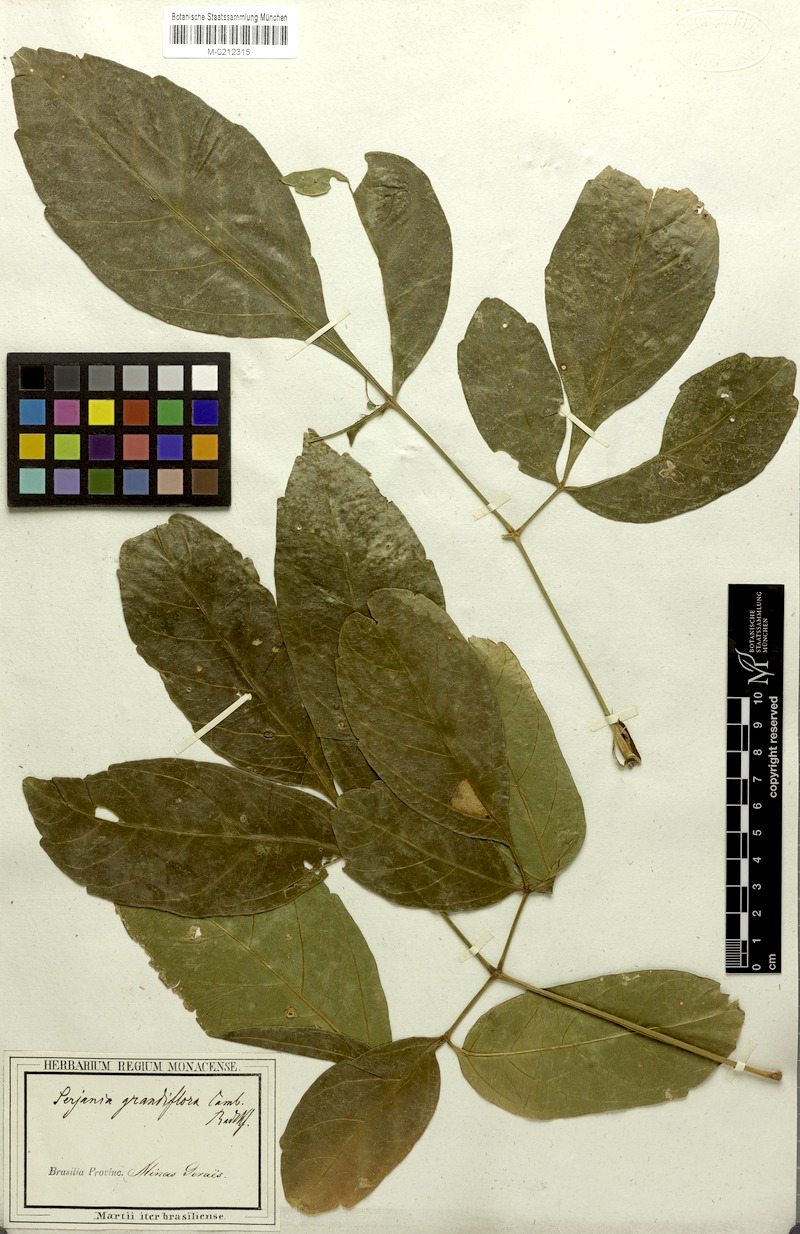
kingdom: Plantae
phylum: Tracheophyta
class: Magnoliopsida
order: Sapindales
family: Sapindaceae
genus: Serjania
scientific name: Serjania caracasana
